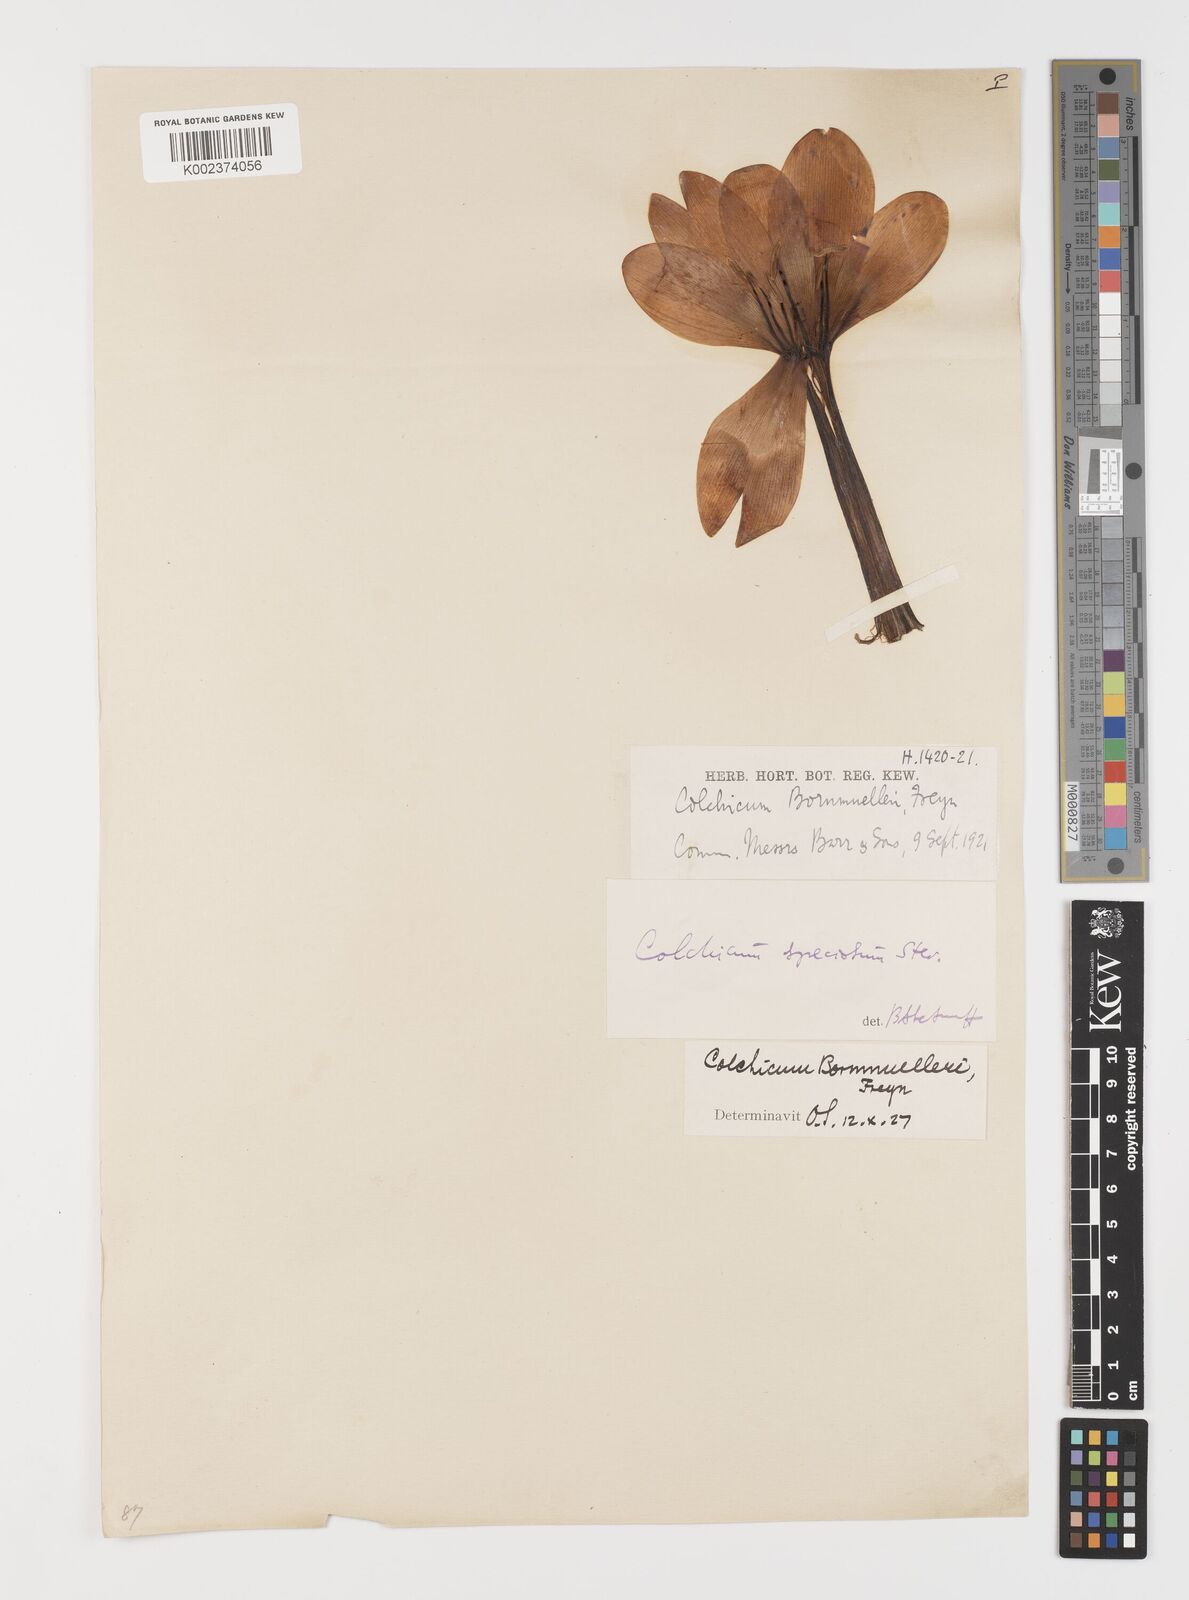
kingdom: Plantae
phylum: Tracheophyta
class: Liliopsida
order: Liliales
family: Colchicaceae
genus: Colchicum
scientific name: Colchicum speciosum
